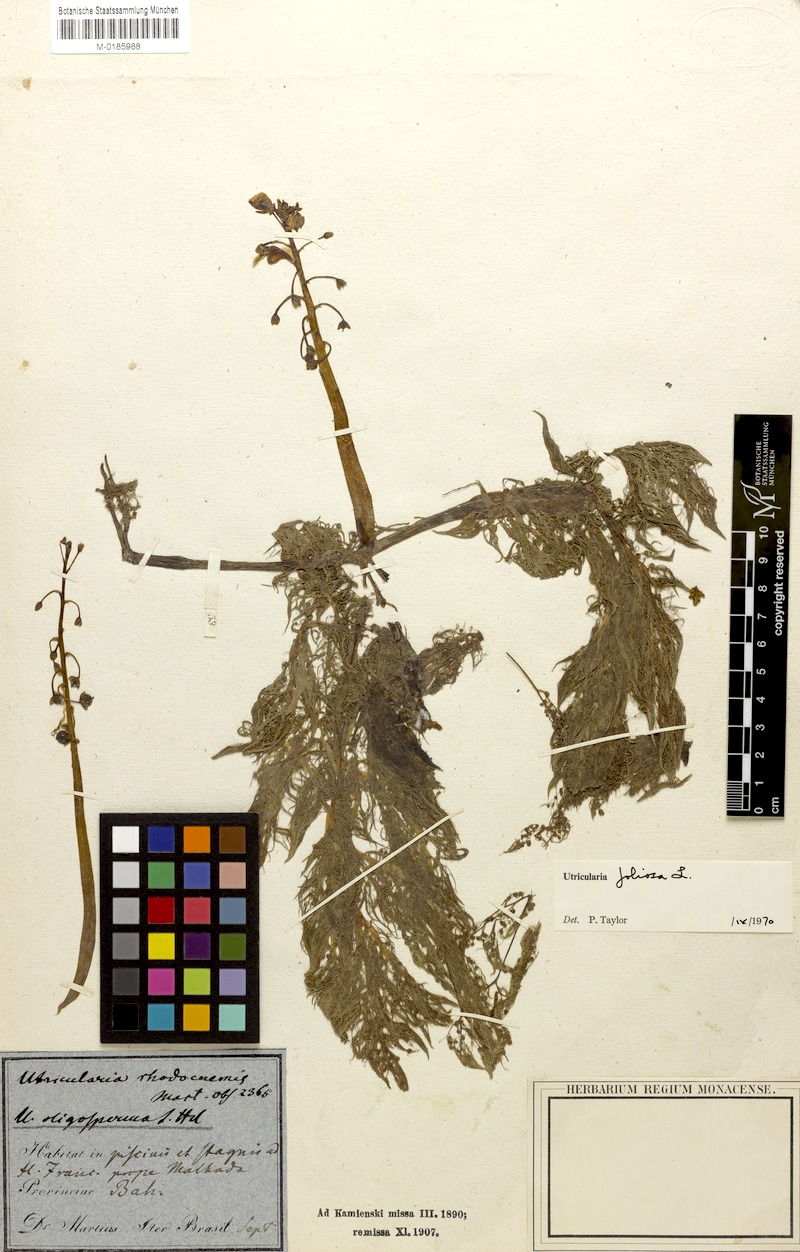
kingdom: Plantae
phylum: Tracheophyta
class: Magnoliopsida
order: Lamiales
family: Lentibulariaceae
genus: Utricularia
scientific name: Utricularia foliosa
